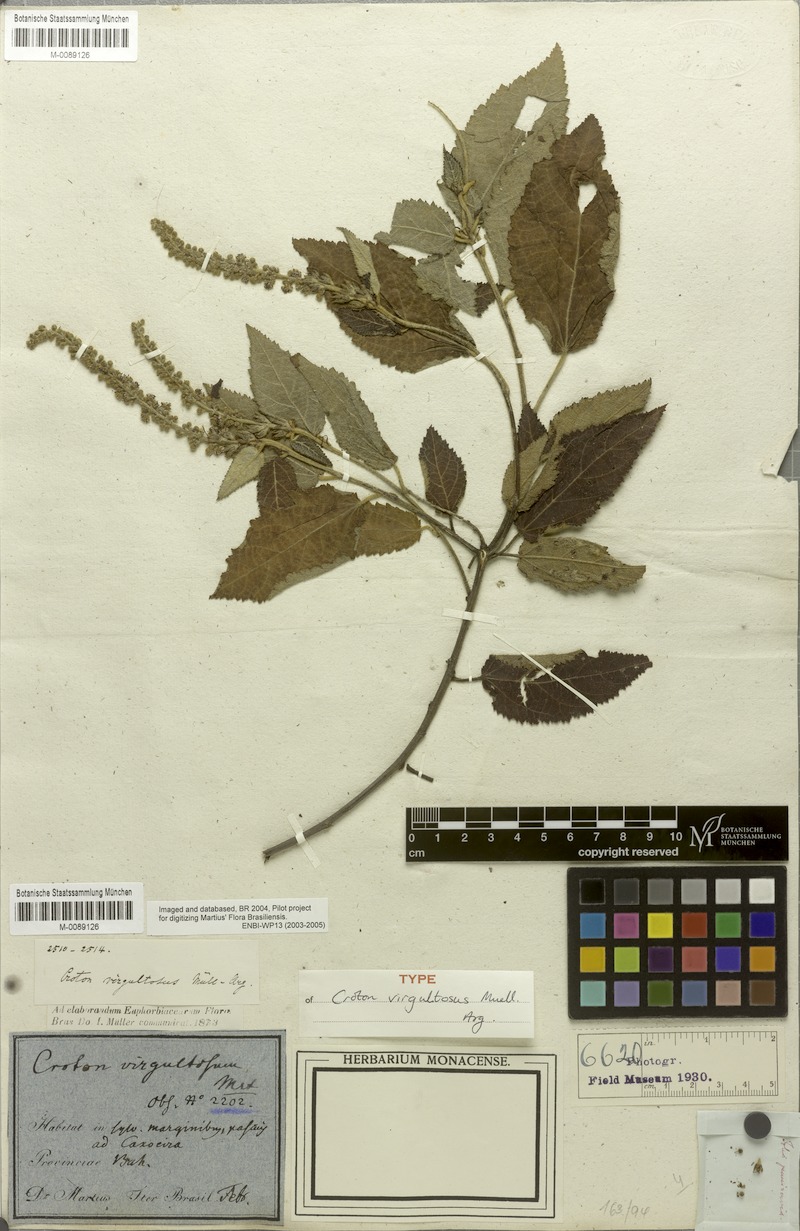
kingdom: Plantae
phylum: Tracheophyta
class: Magnoliopsida
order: Malpighiales
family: Euphorbiaceae
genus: Croton
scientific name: Croton virgultosus
